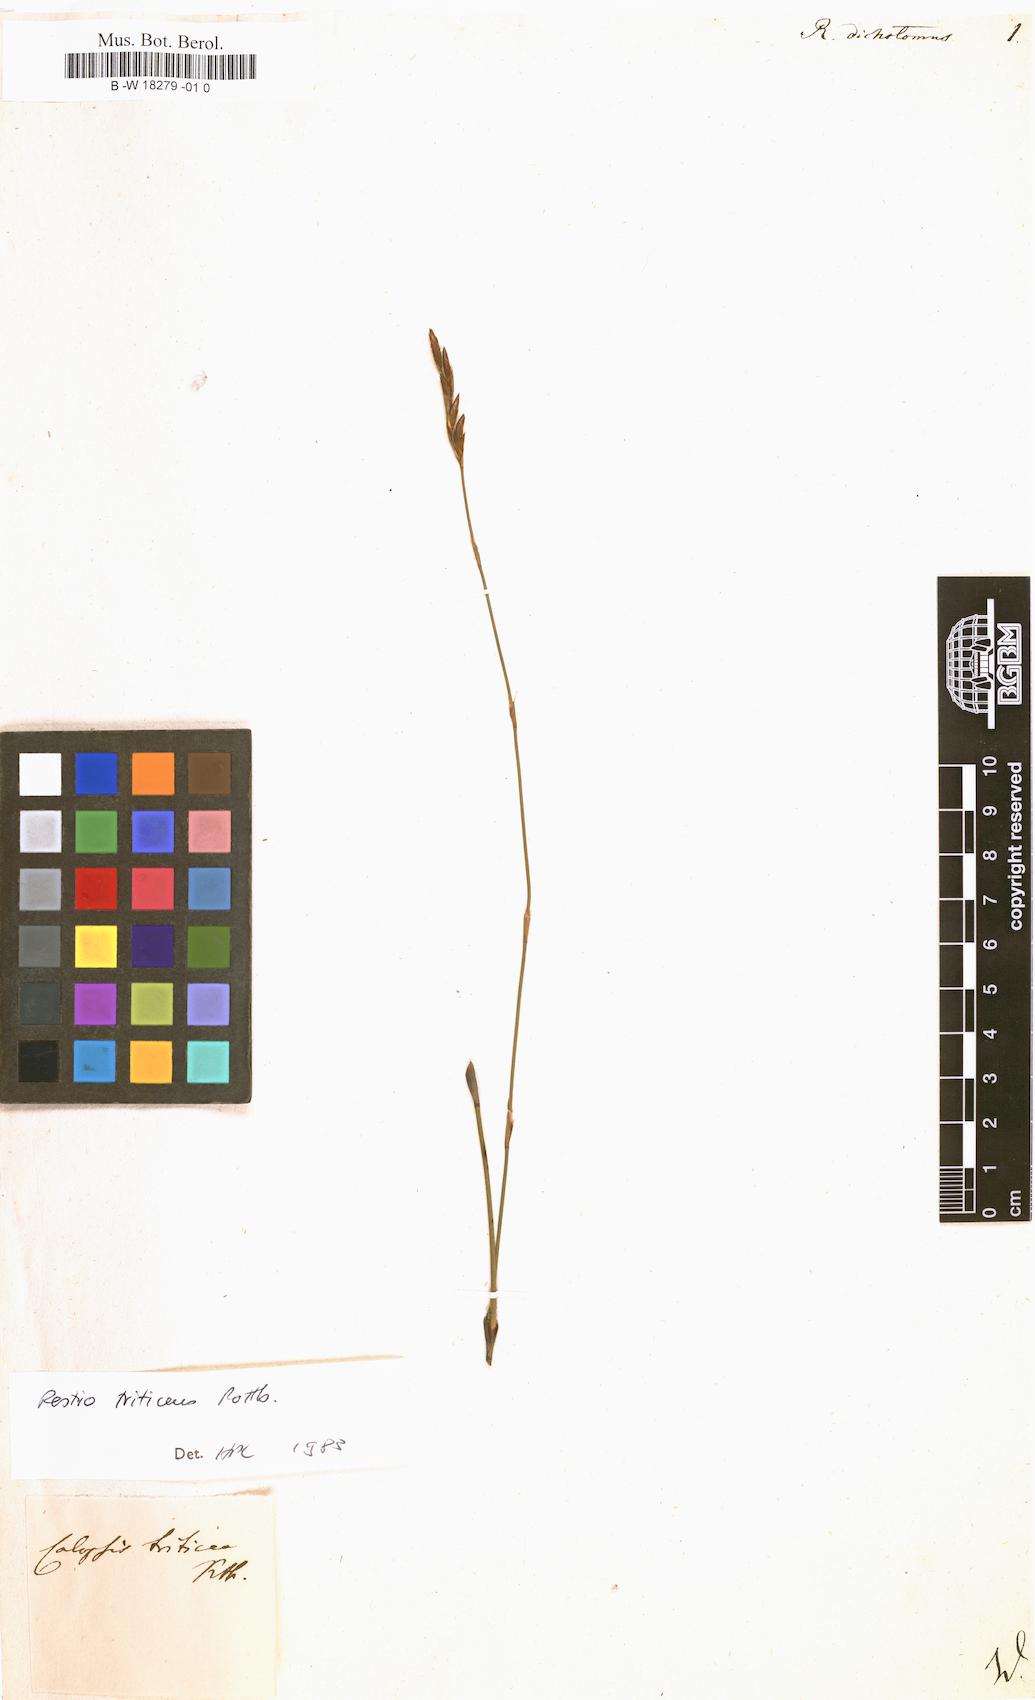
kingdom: Plantae
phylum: Tracheophyta
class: Liliopsida
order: Poales
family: Restionaceae
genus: Restio
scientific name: Restio capensis
